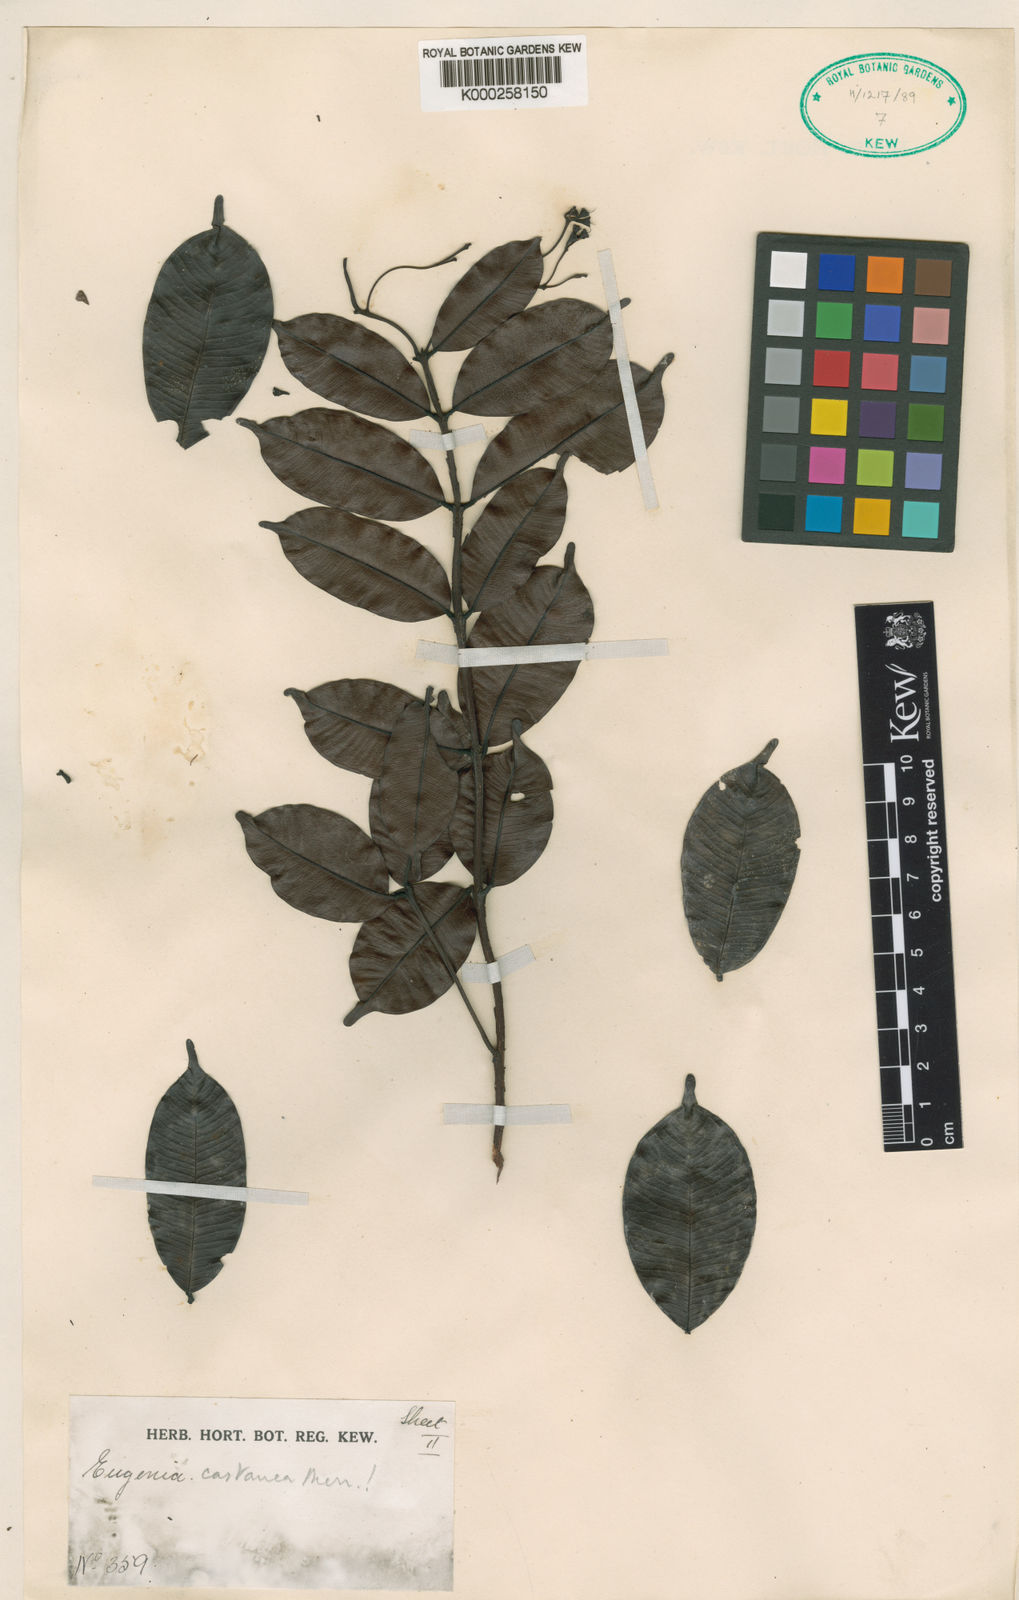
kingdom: Plantae
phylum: Tracheophyta
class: Magnoliopsida
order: Myrtales
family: Myrtaceae
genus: Syzygium
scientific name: Syzygium castaneum
